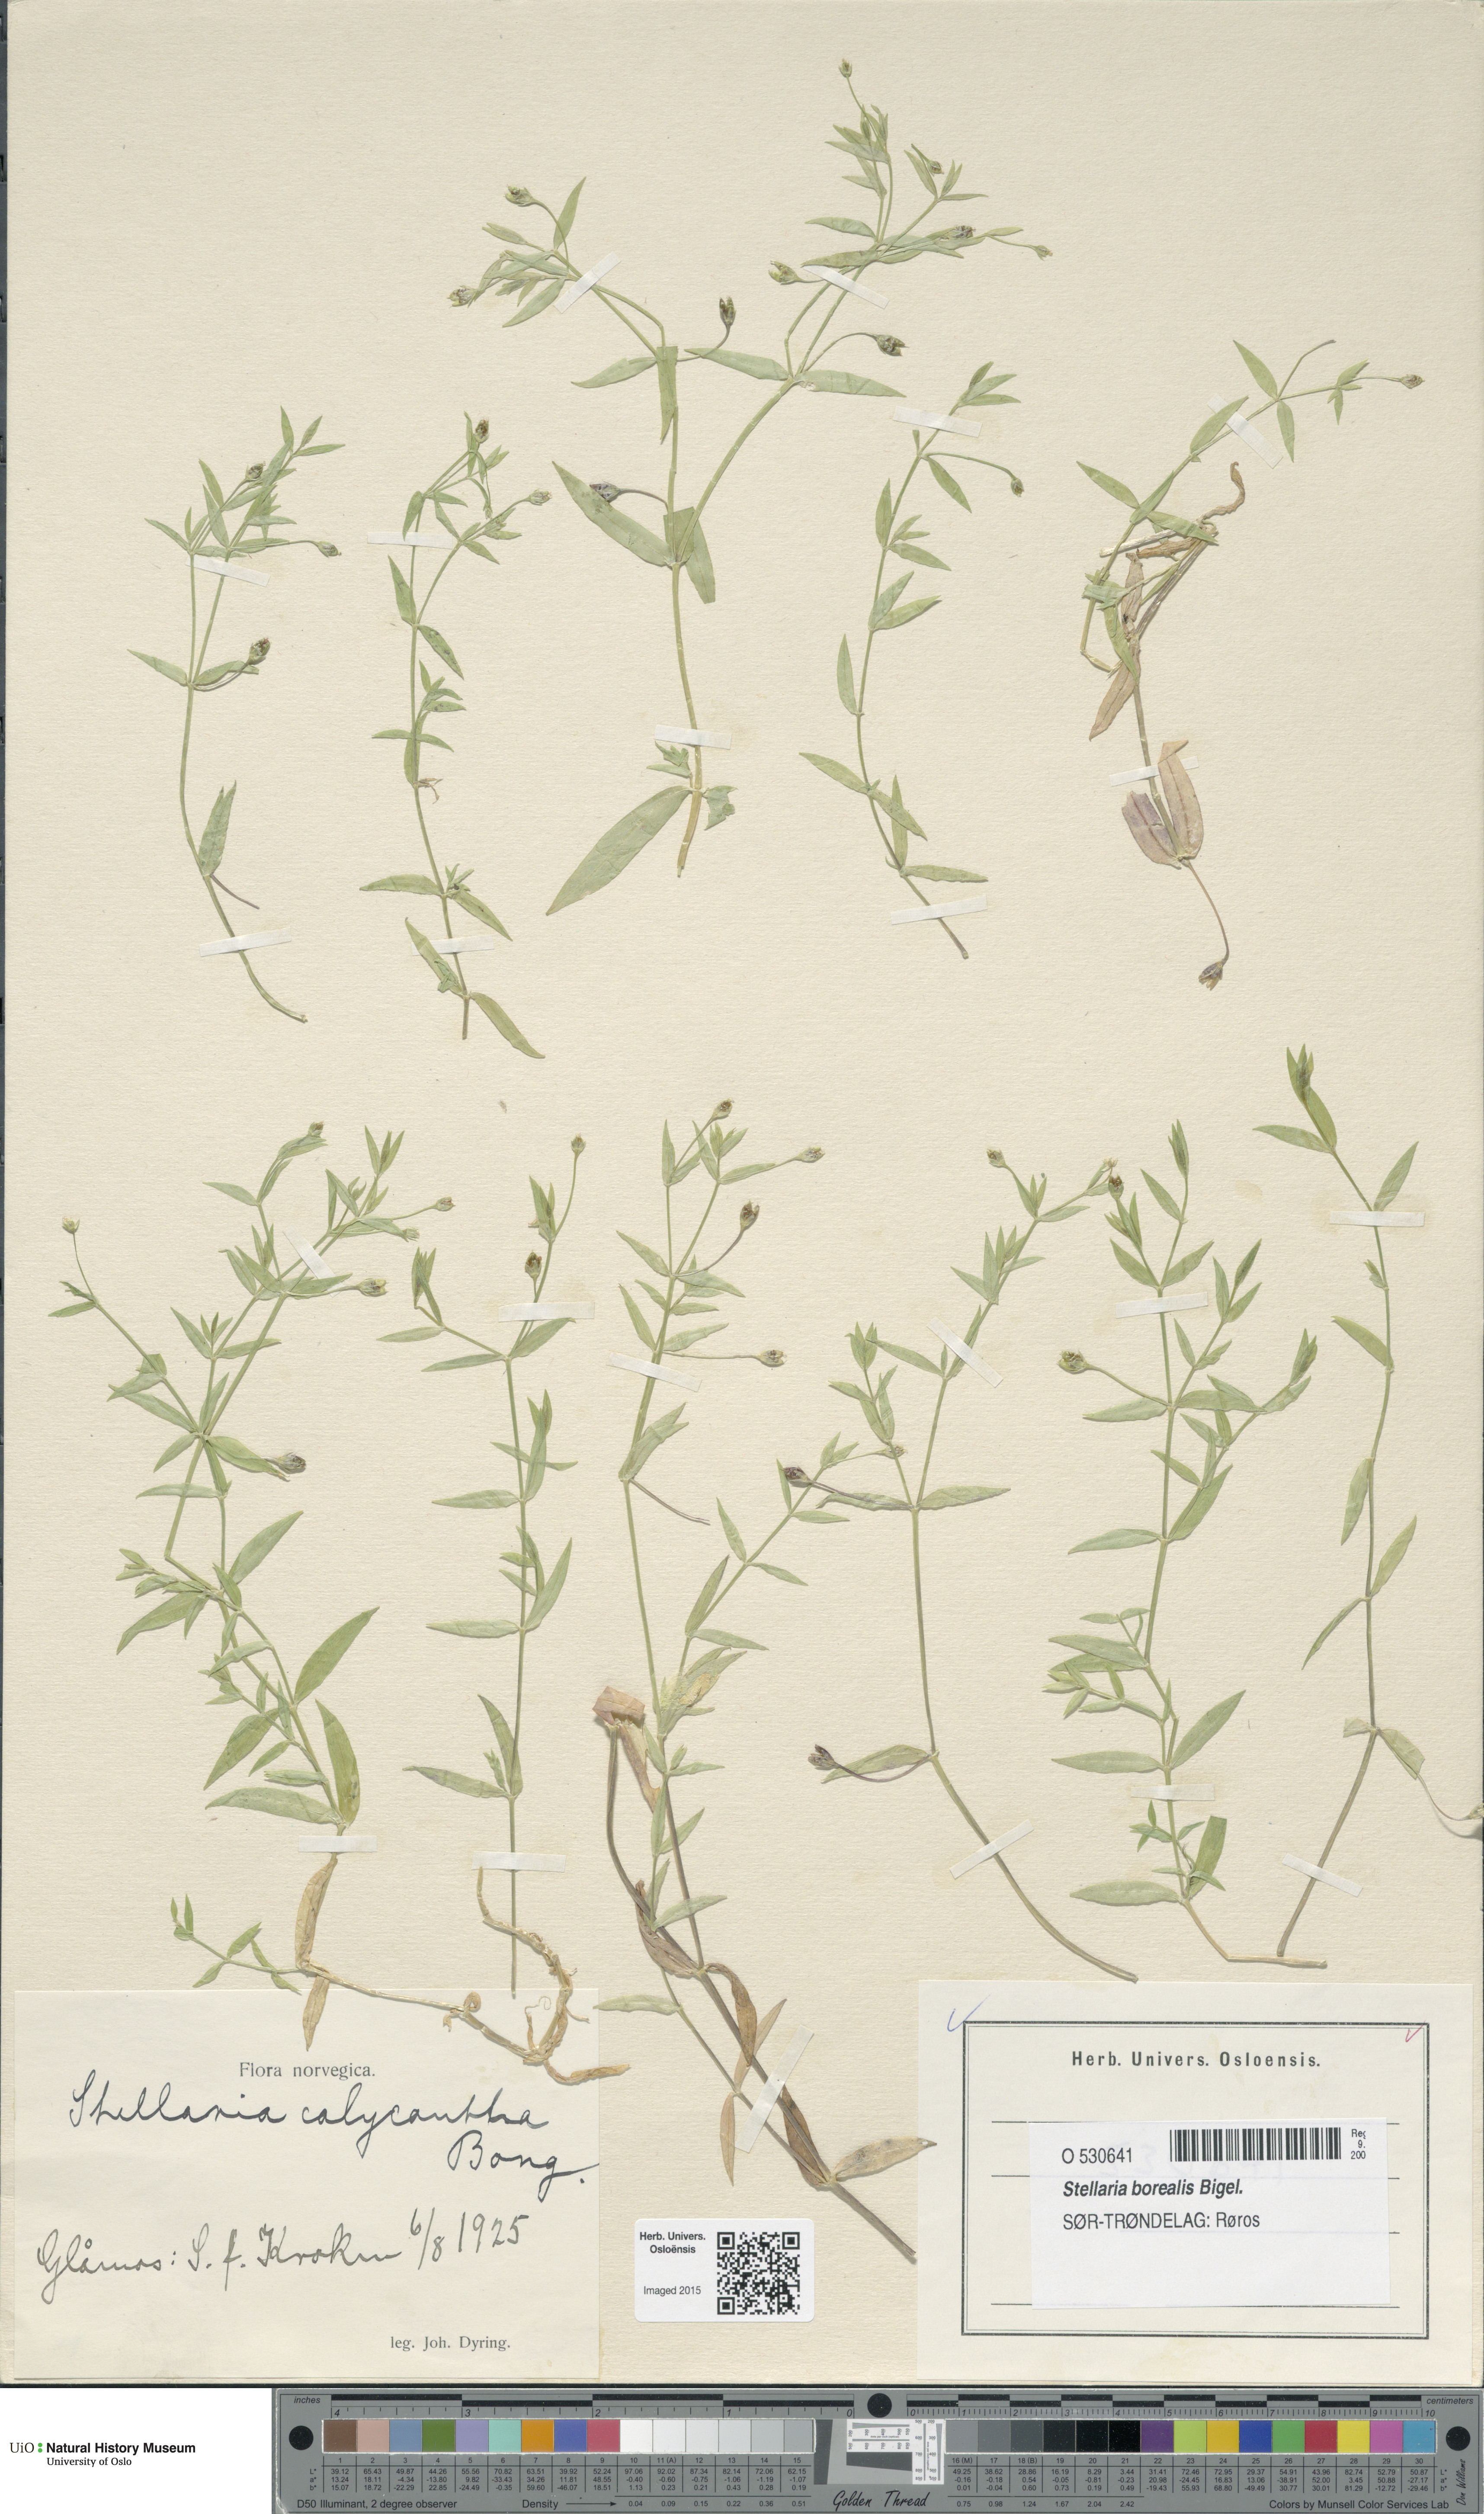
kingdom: Plantae
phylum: Tracheophyta
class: Magnoliopsida
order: Caryophyllales
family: Caryophyllaceae
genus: Stellaria
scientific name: Stellaria borealis
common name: Boreal starwort
